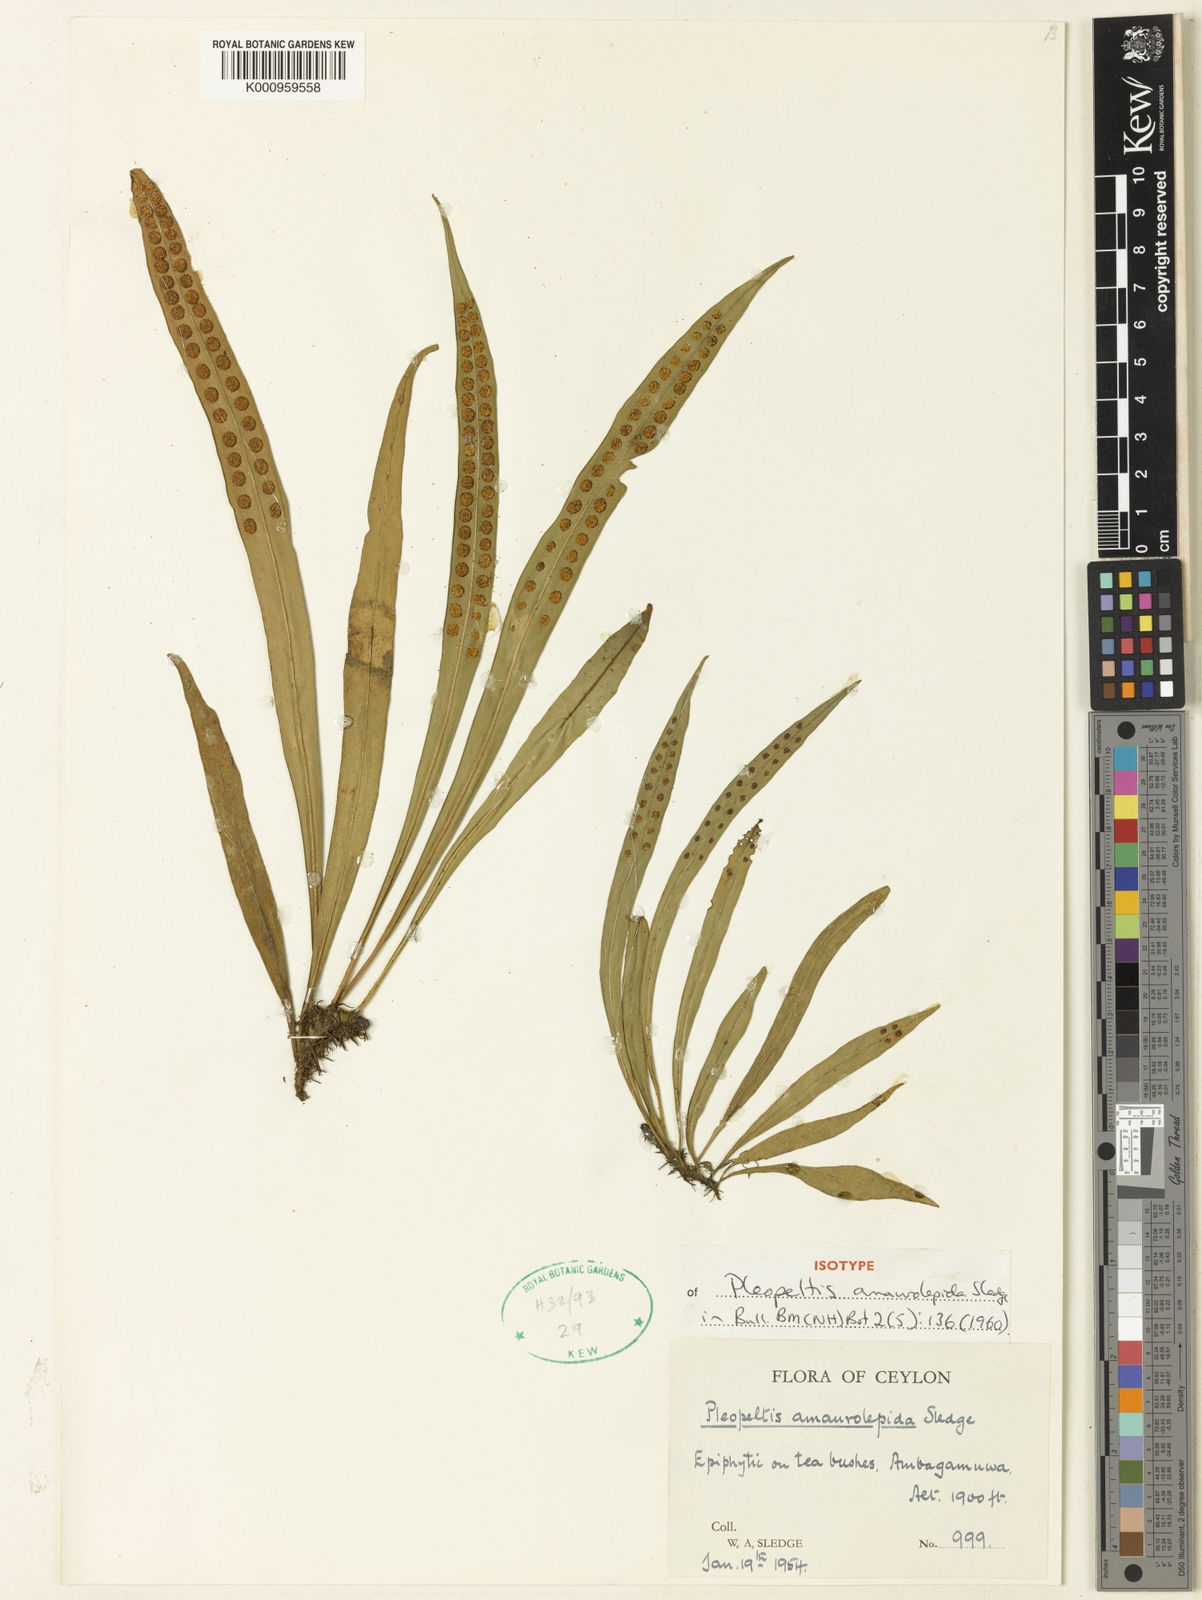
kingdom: Plantae
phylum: Tracheophyta
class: Polypodiopsida
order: Polypodiales
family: Polypodiaceae
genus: Lepisorus
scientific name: Lepisorus amaurolepidus
